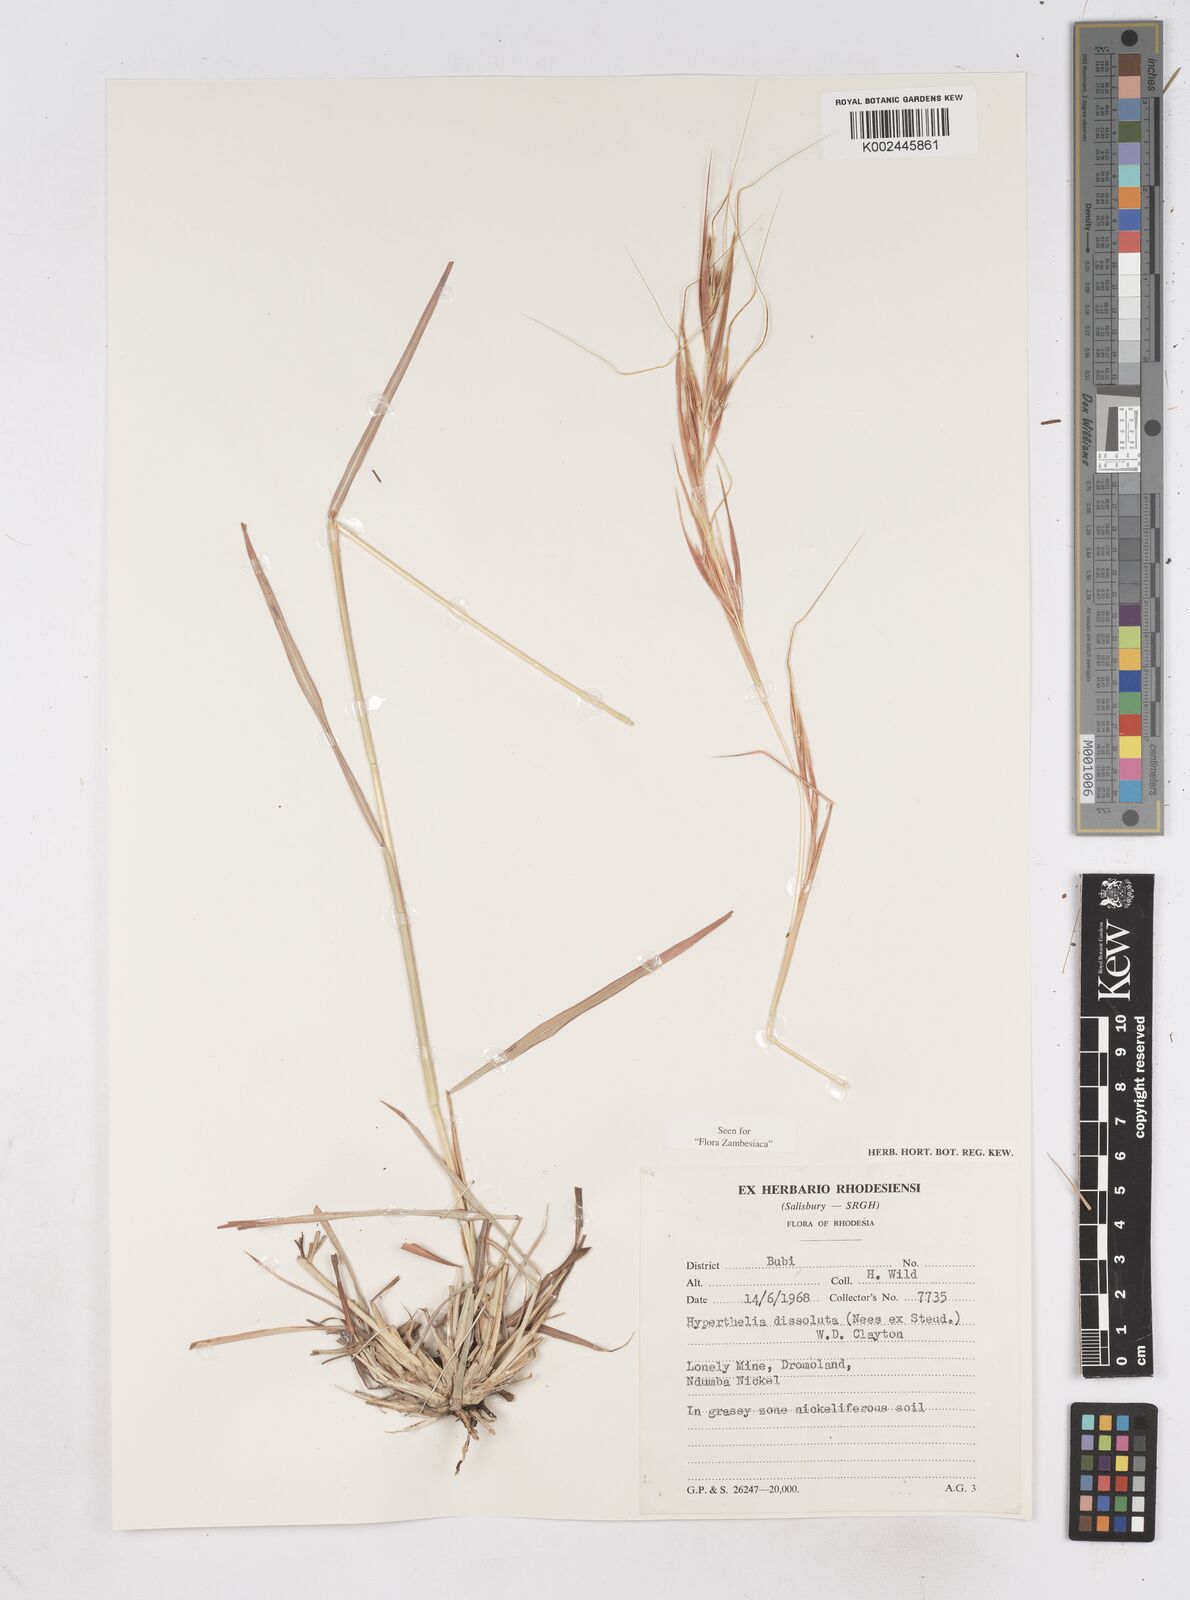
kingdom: Plantae
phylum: Tracheophyta
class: Liliopsida
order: Poales
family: Poaceae
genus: Hyperthelia
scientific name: Hyperthelia dissoluta
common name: Yellow thatching grass
